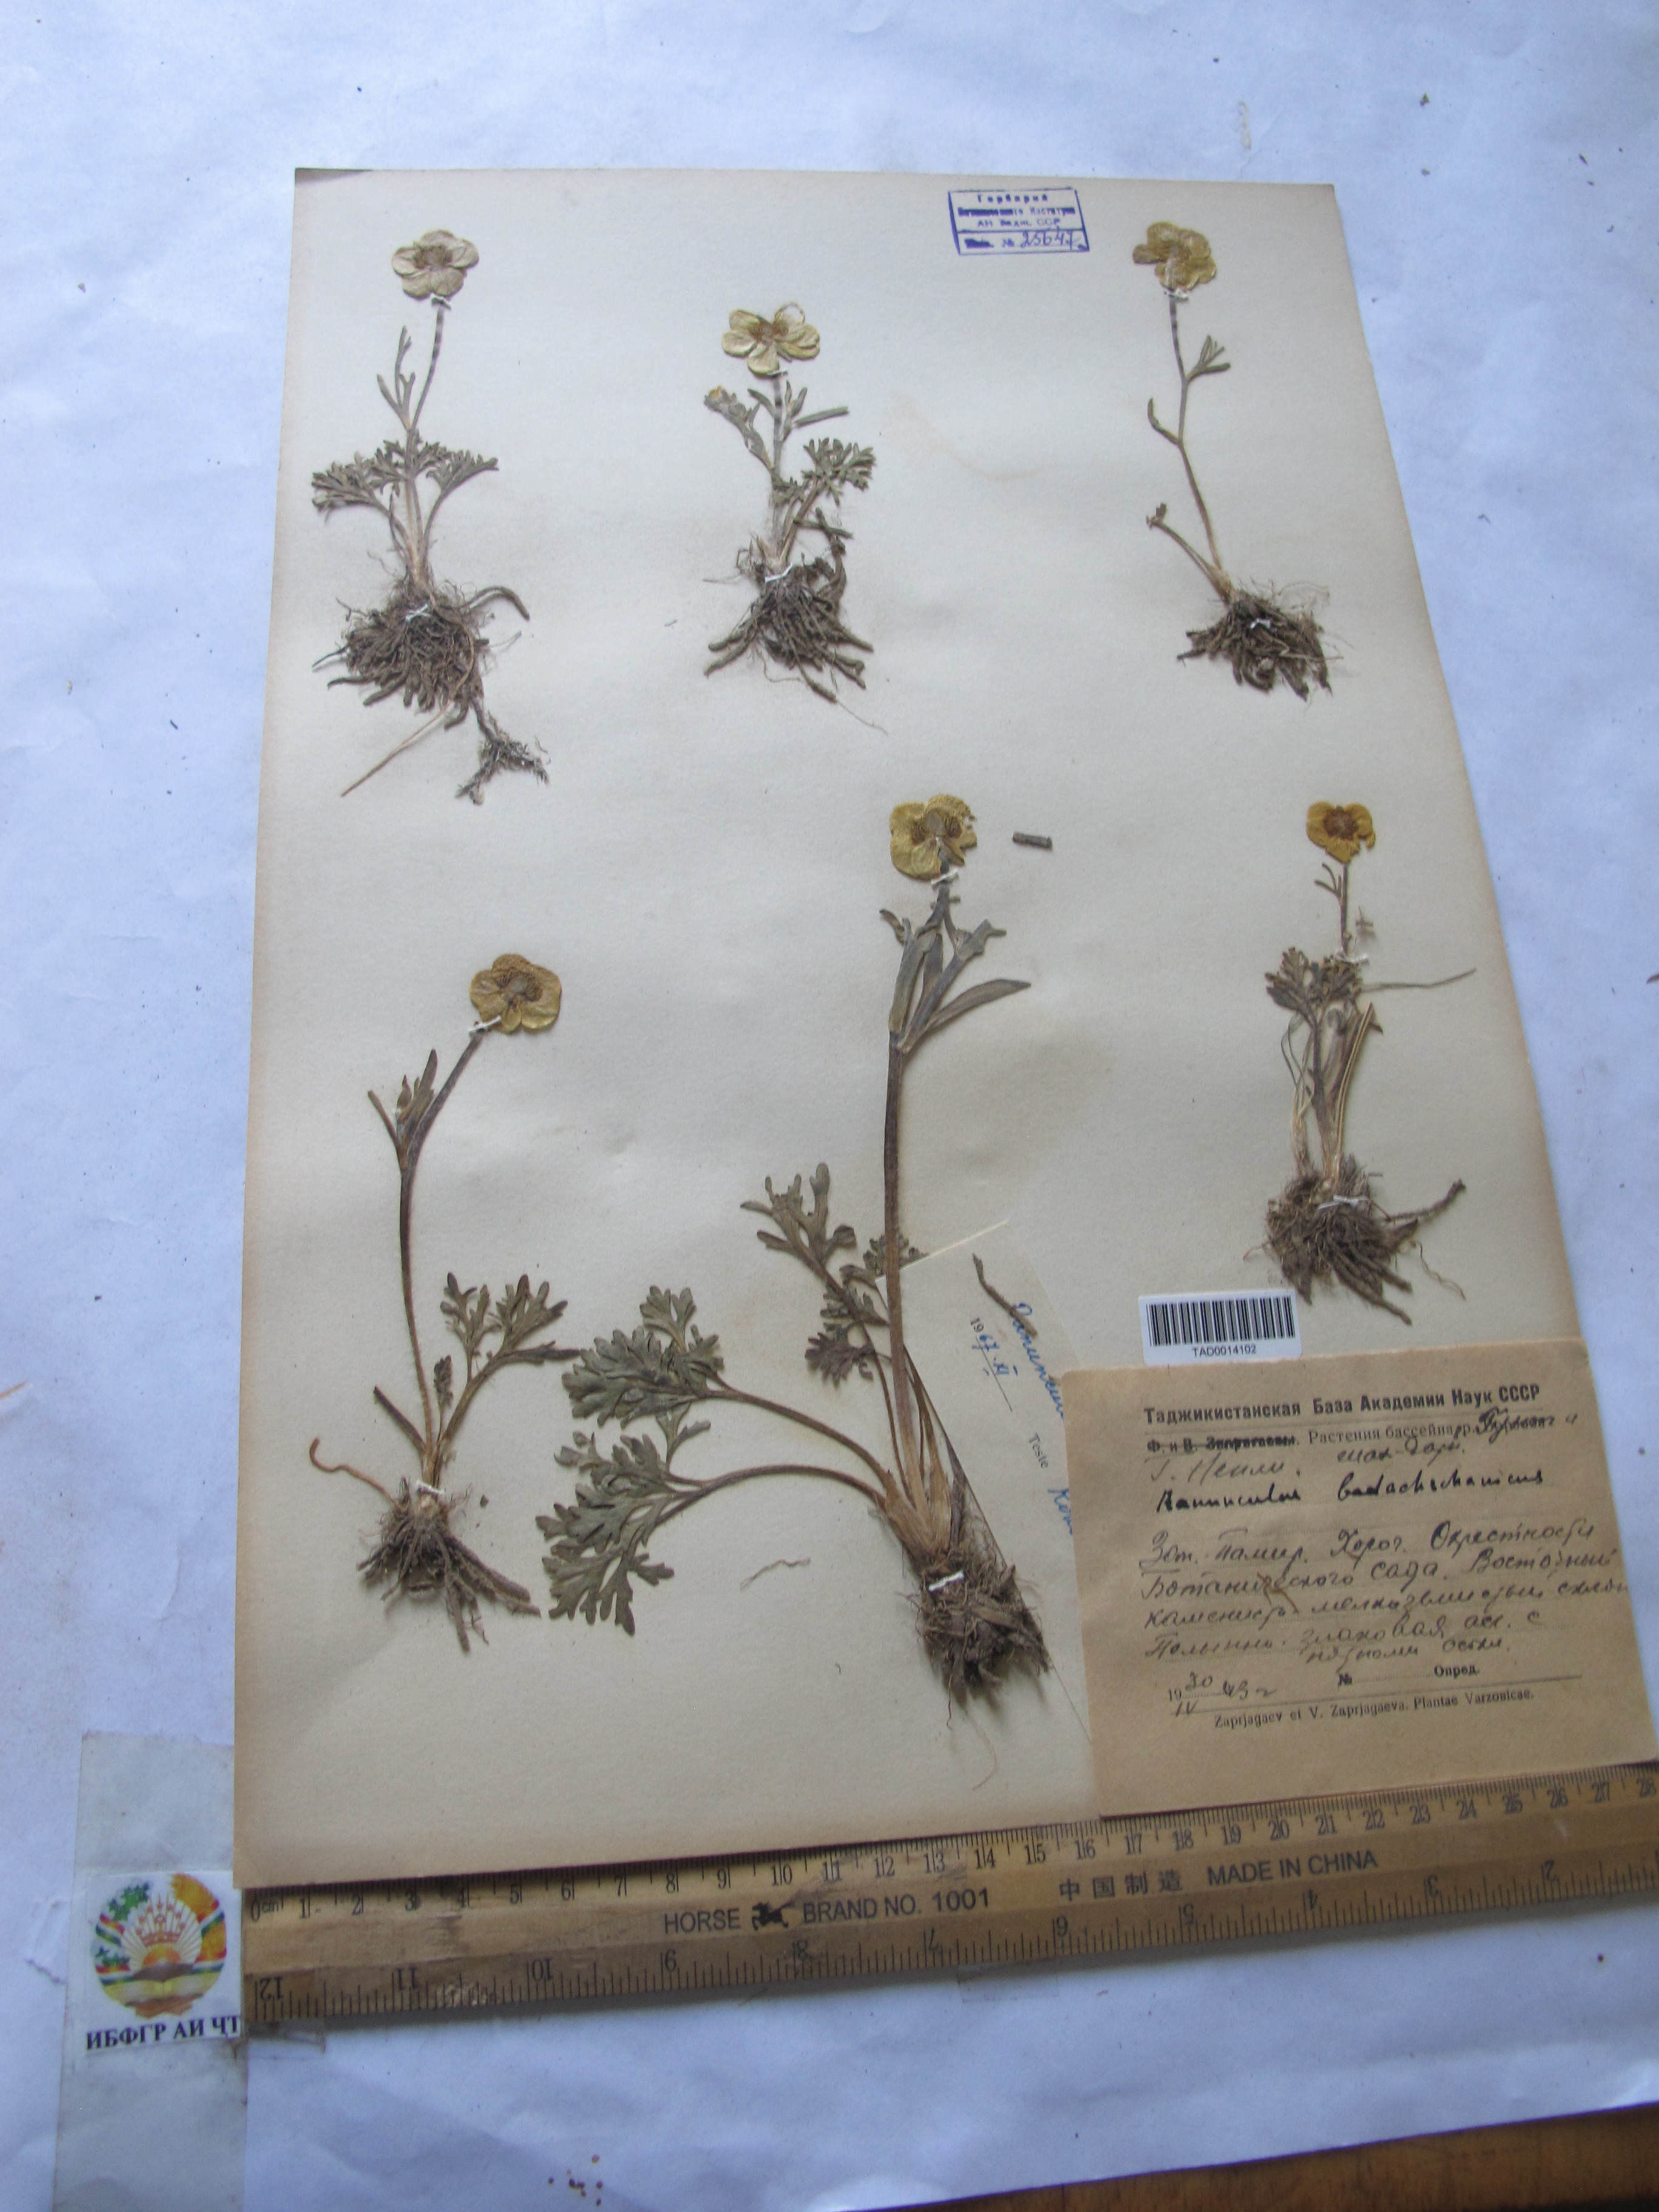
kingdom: Plantae
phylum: Tracheophyta
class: Magnoliopsida
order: Ranunculales
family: Ranunculaceae
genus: Ranunculus
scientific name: Ranunculus badachschanicus
